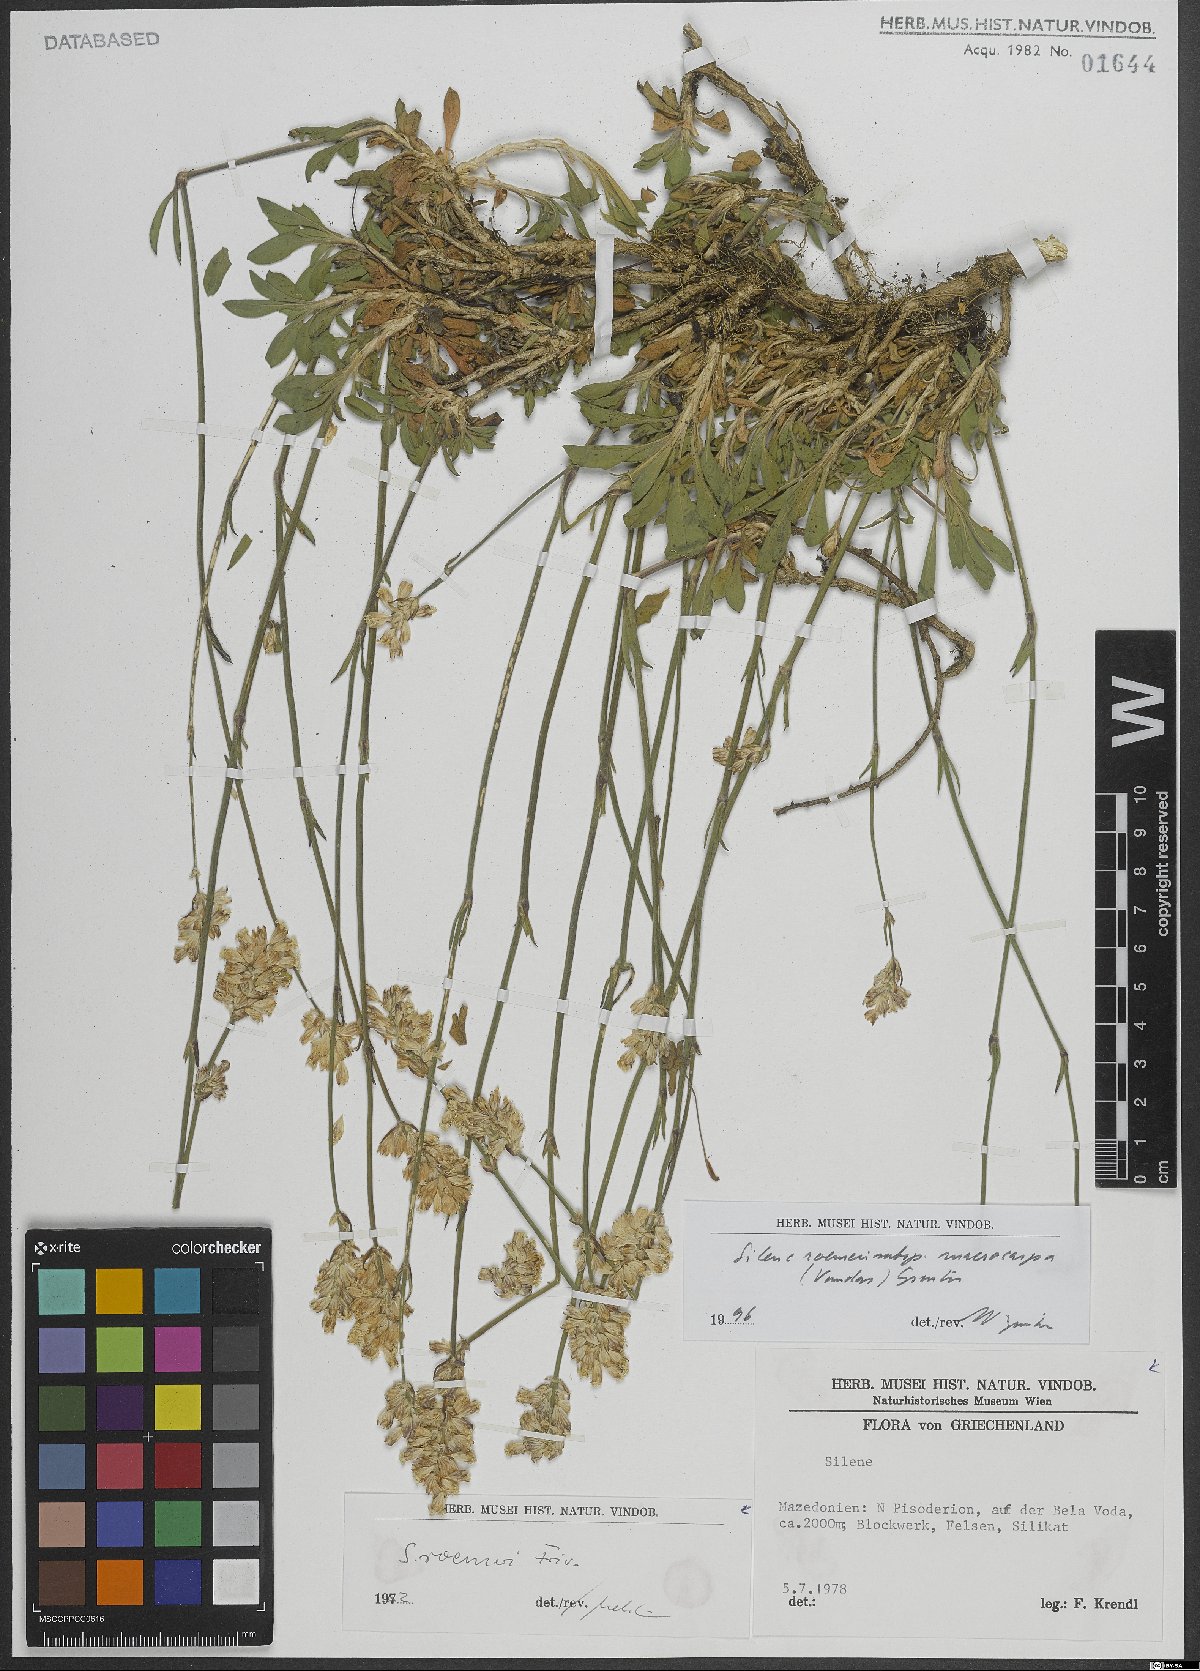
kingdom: Plantae
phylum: Tracheophyta
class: Magnoliopsida
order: Caryophyllales
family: Caryophyllaceae
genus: Silene
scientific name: Silene roemeri
